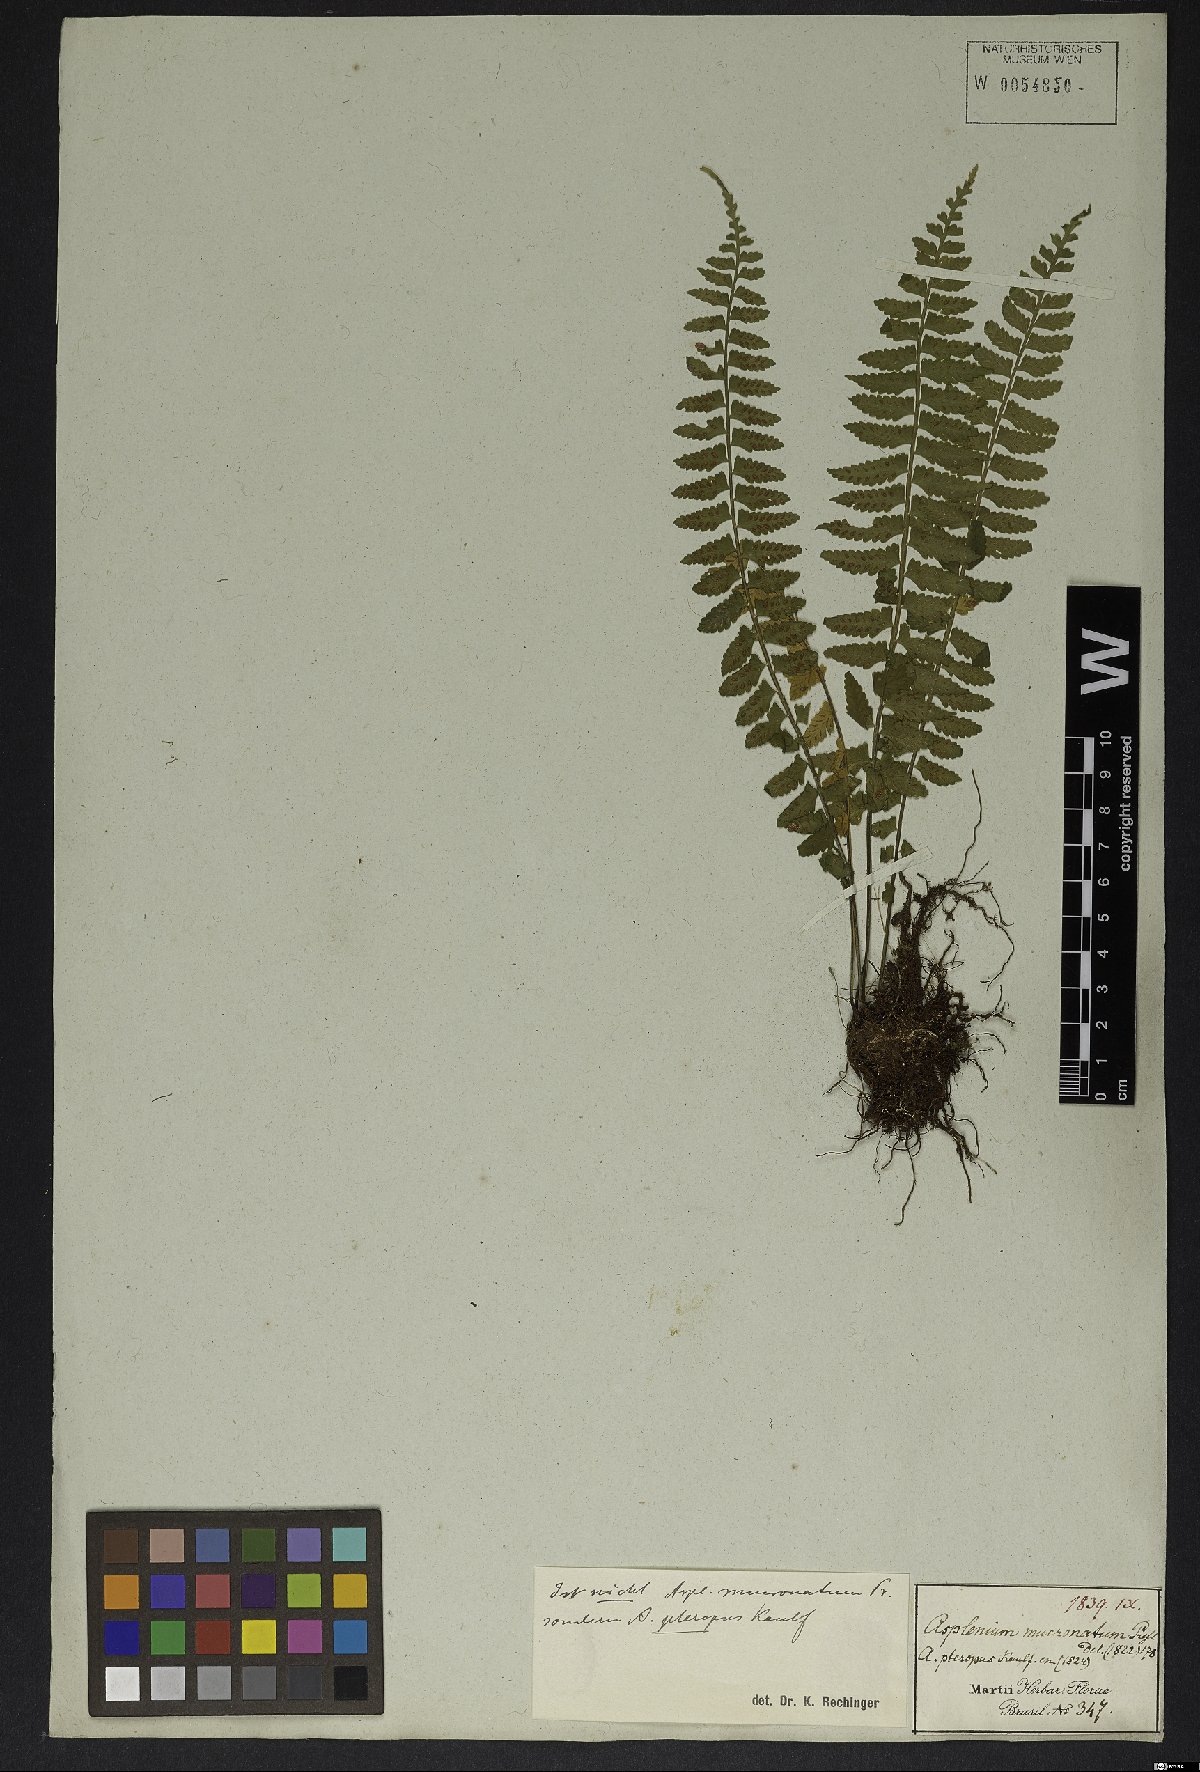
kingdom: Plantae
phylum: Tracheophyta
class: Polypodiopsida
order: Polypodiales
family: Aspleniaceae
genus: Asplenium
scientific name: Asplenium lunulatum
